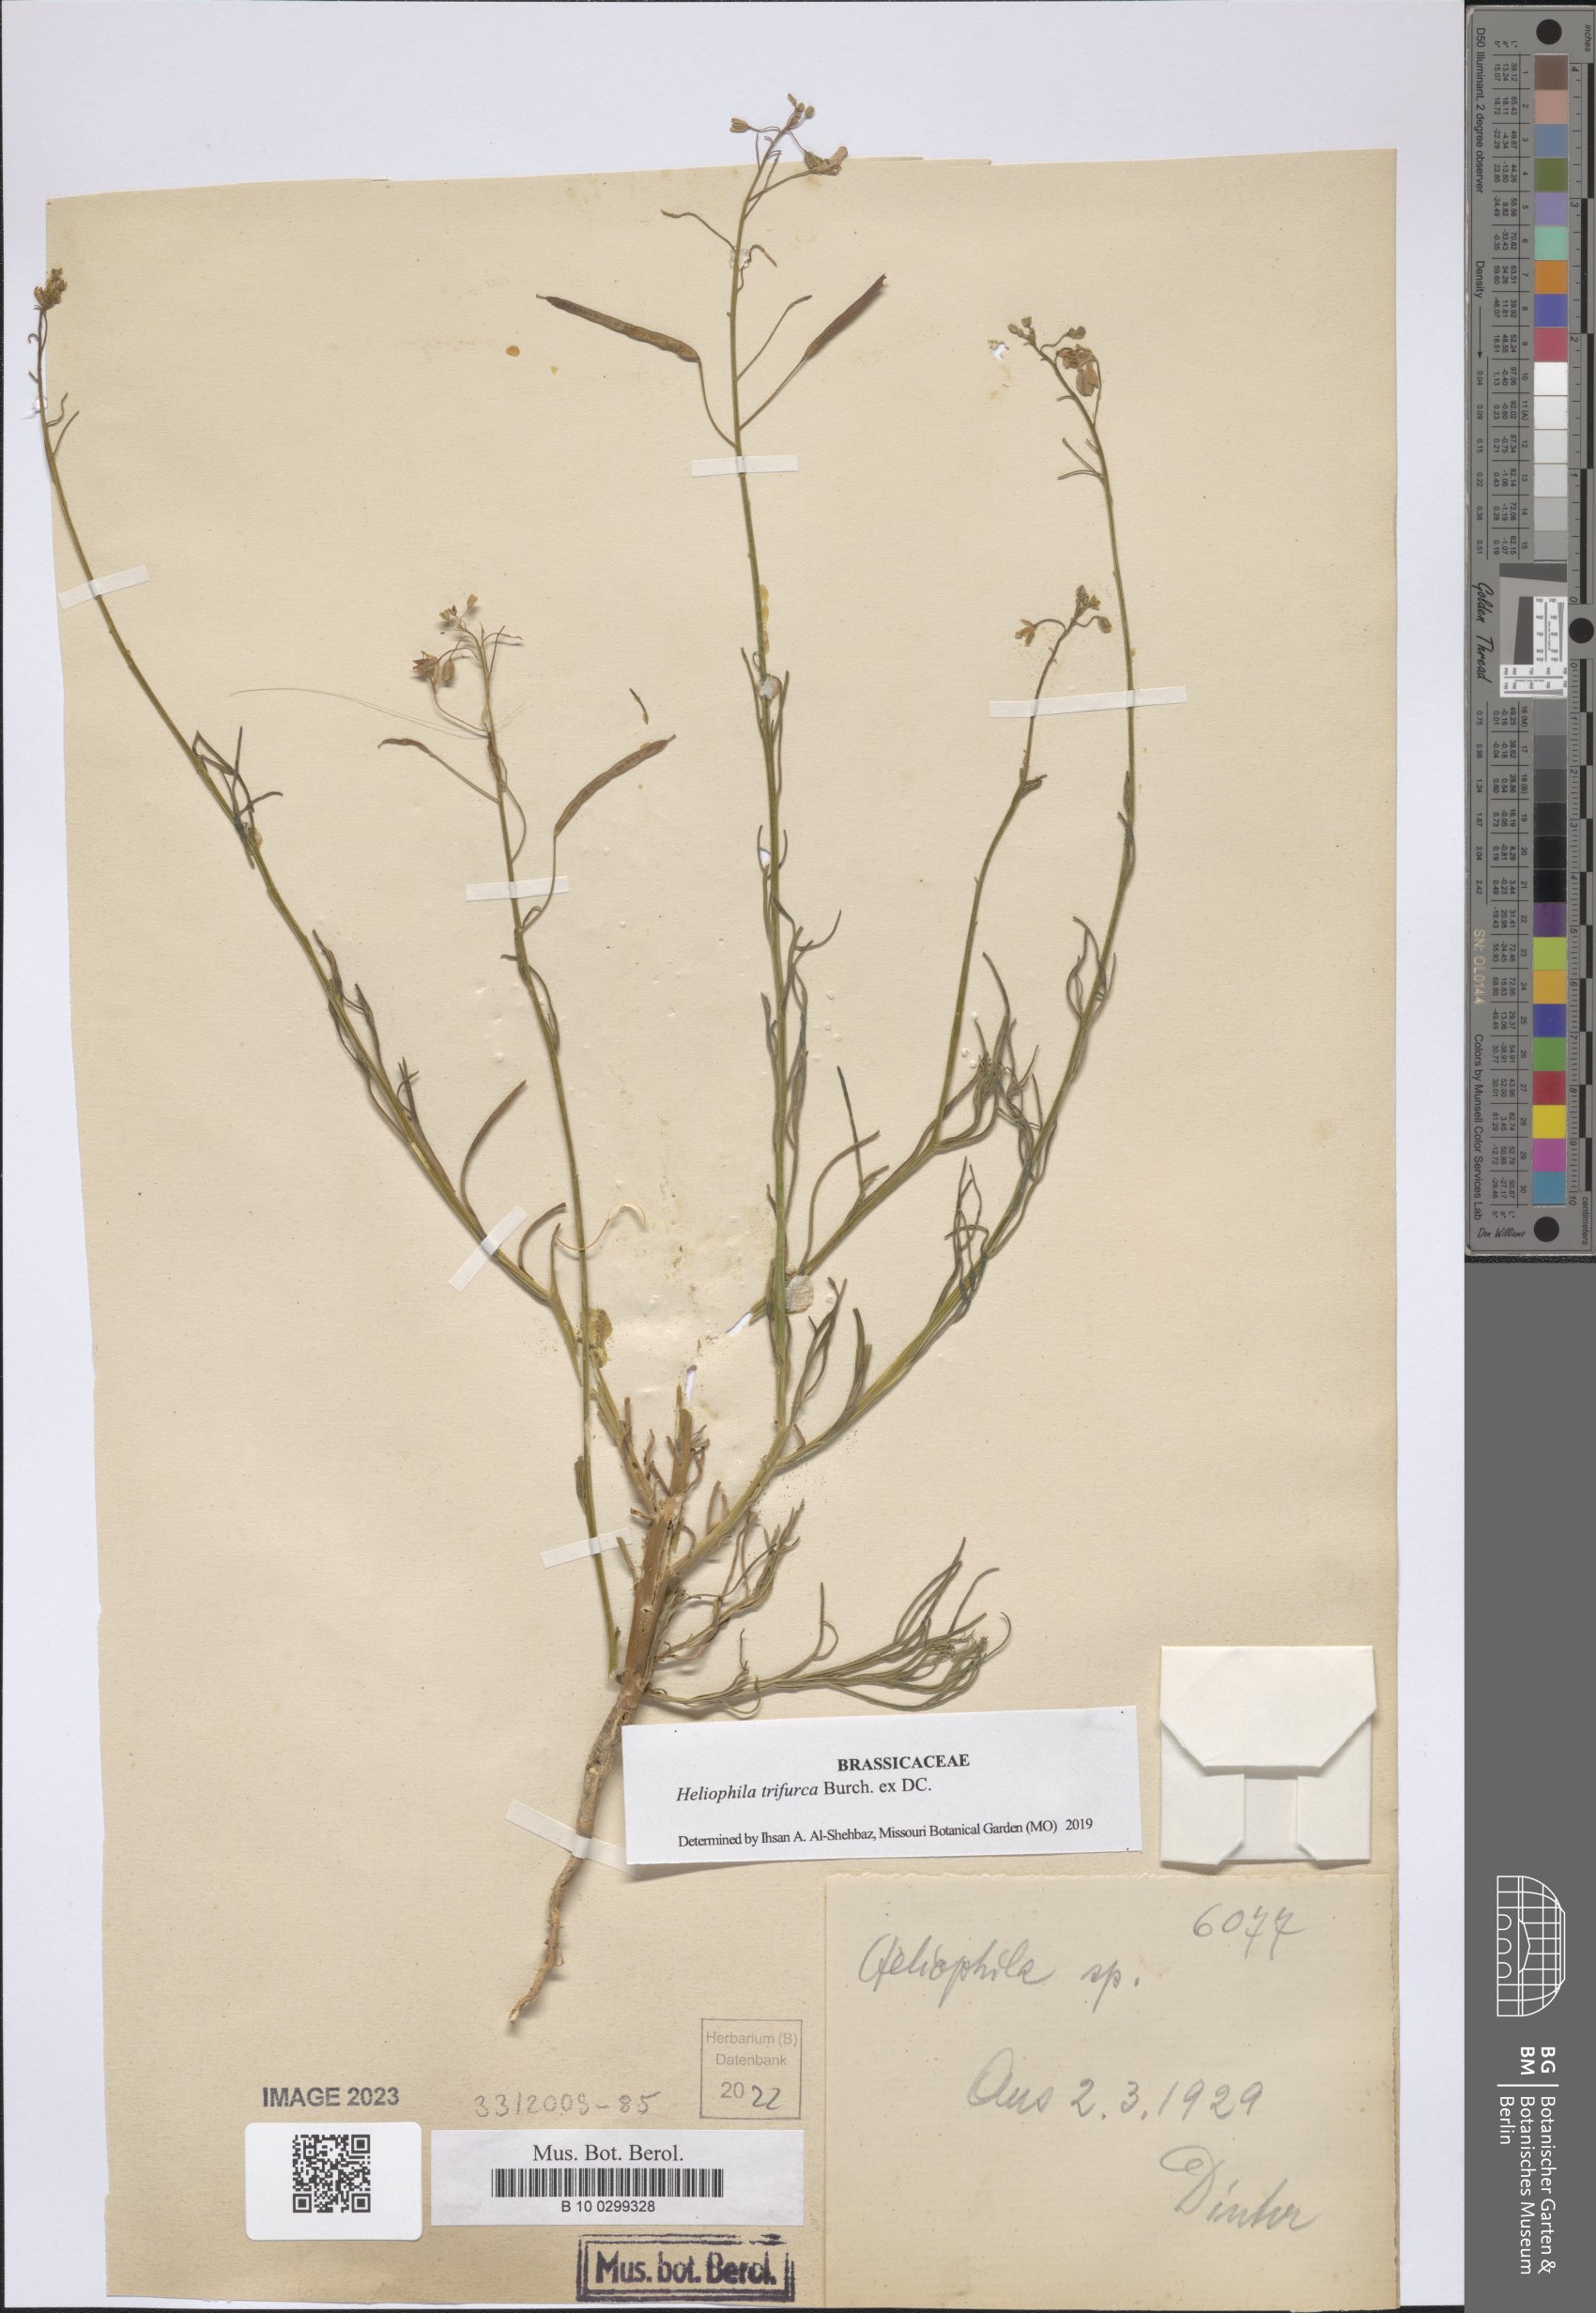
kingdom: Plantae
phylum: Tracheophyta
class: Magnoliopsida
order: Brassicales
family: Brassicaceae
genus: Heliophila
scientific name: Heliophila trifurca
